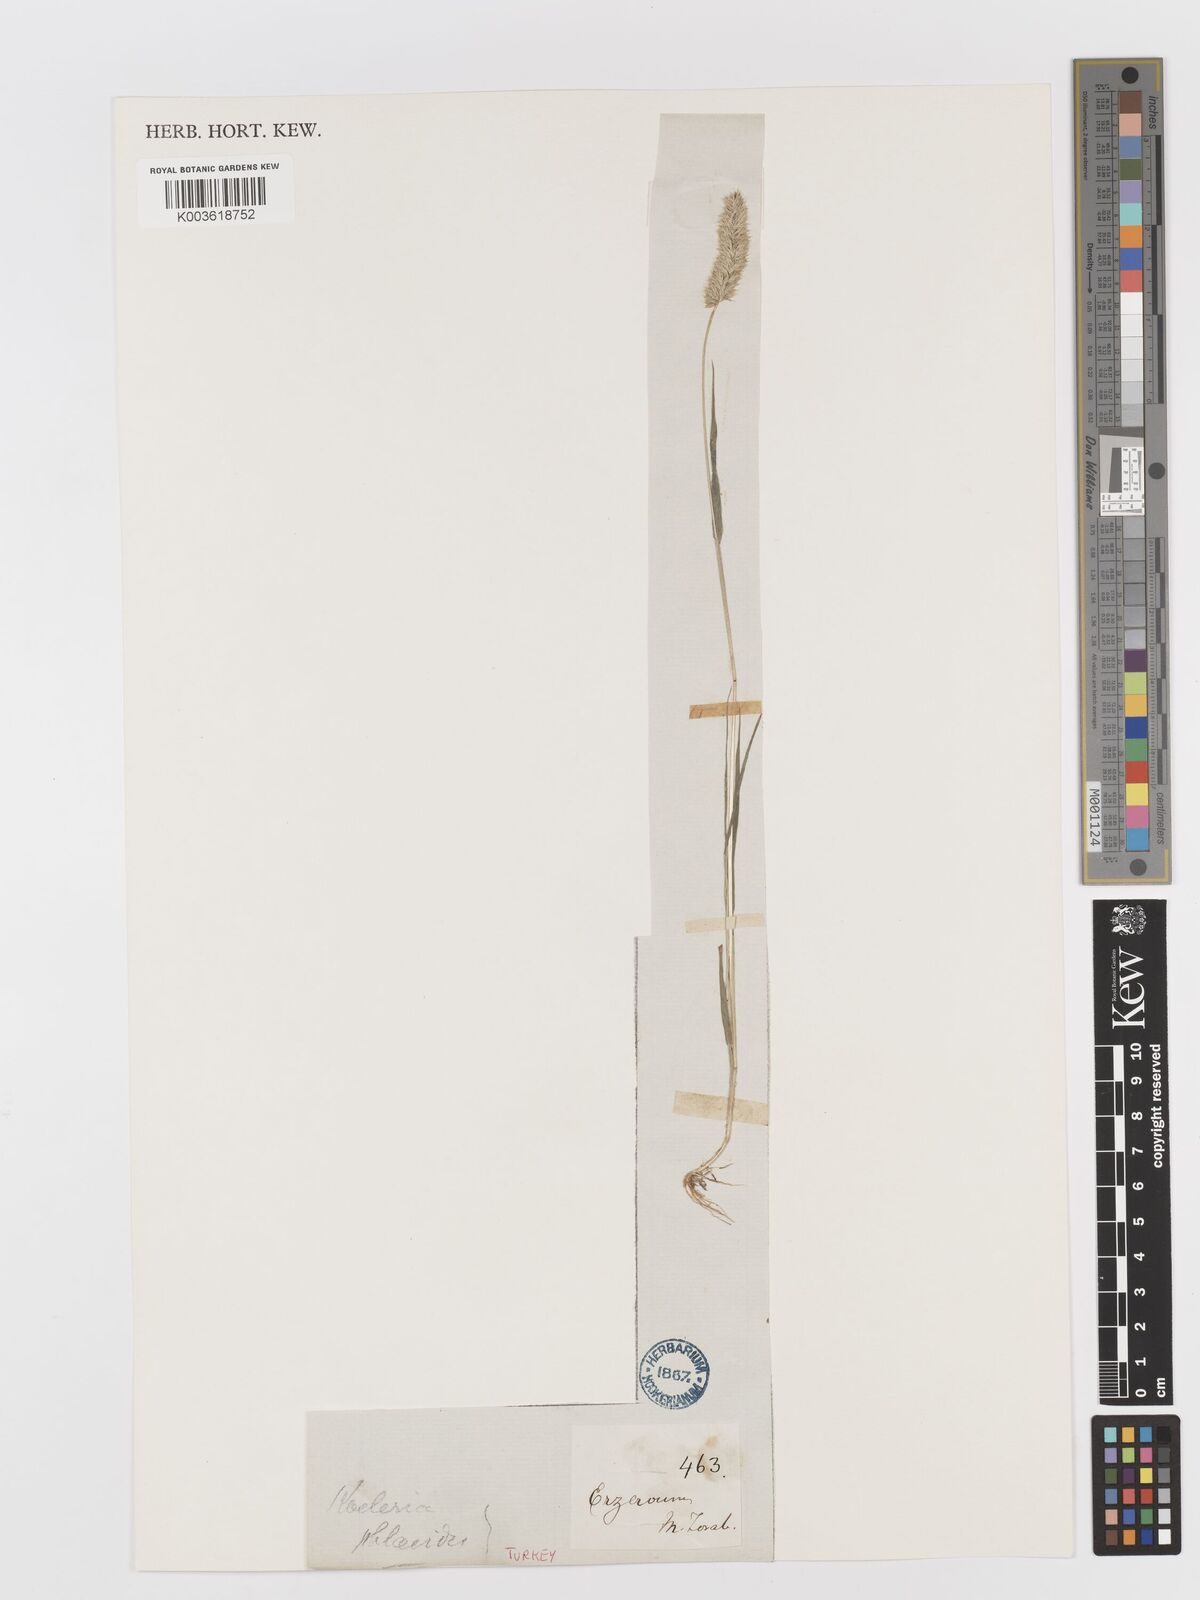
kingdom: Plantae
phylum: Tracheophyta
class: Liliopsida
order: Poales
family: Poaceae
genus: Rostraria
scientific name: Rostraria cristata
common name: Mediterranean hair-grass
